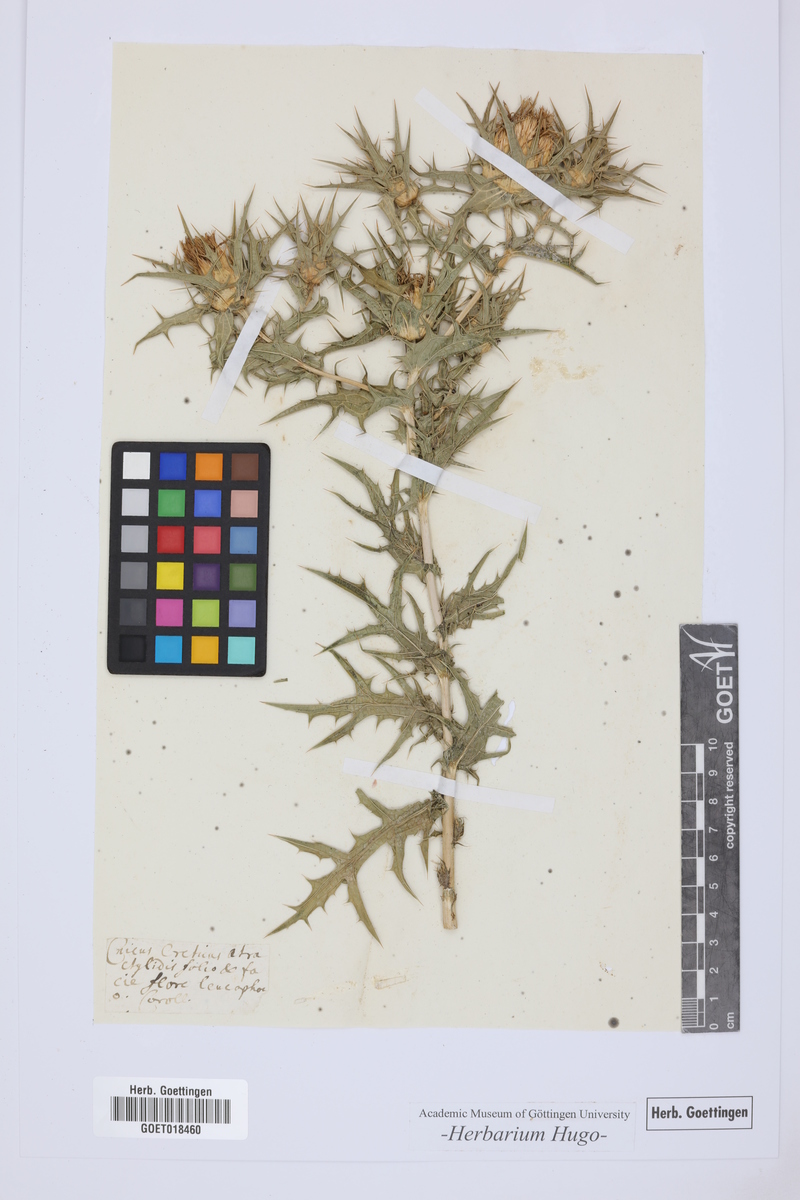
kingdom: Plantae
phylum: Tracheophyta
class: Magnoliopsida
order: Asterales
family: Asteraceae
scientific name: Asteraceae
